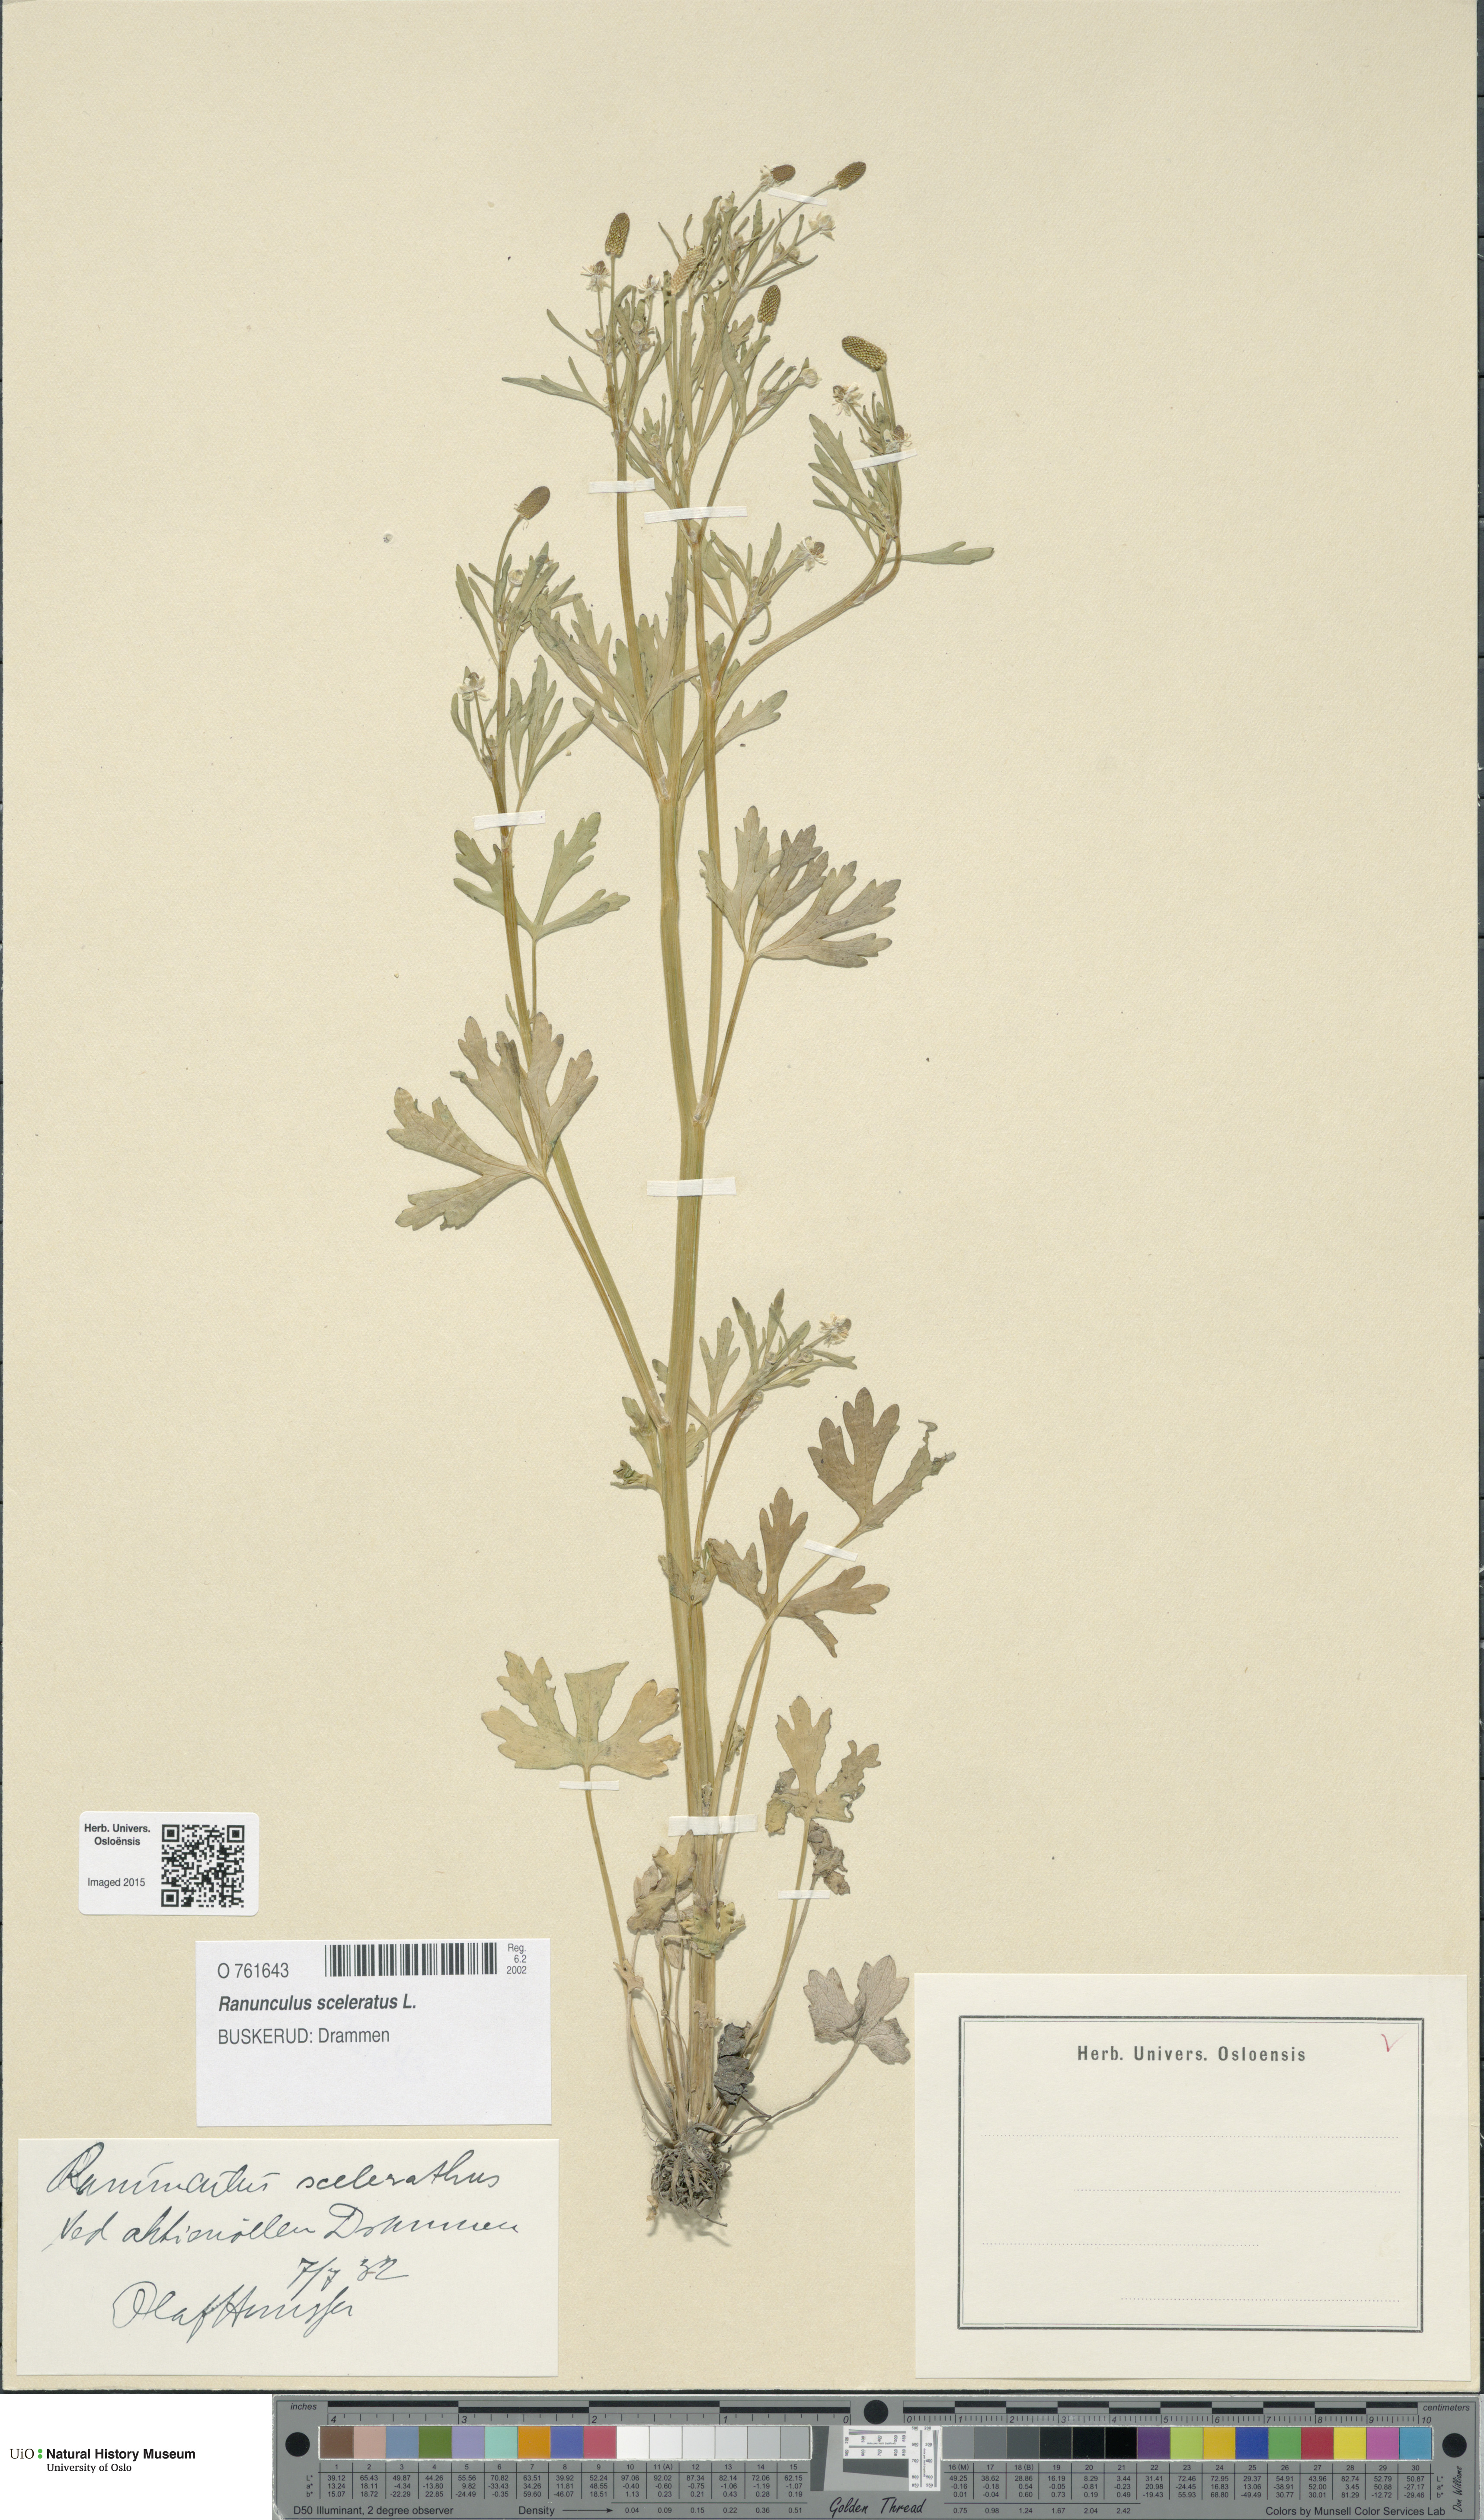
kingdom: Plantae
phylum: Tracheophyta
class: Magnoliopsida
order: Ranunculales
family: Ranunculaceae
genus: Ranunculus
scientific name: Ranunculus sceleratus
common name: Celery-leaved buttercup
